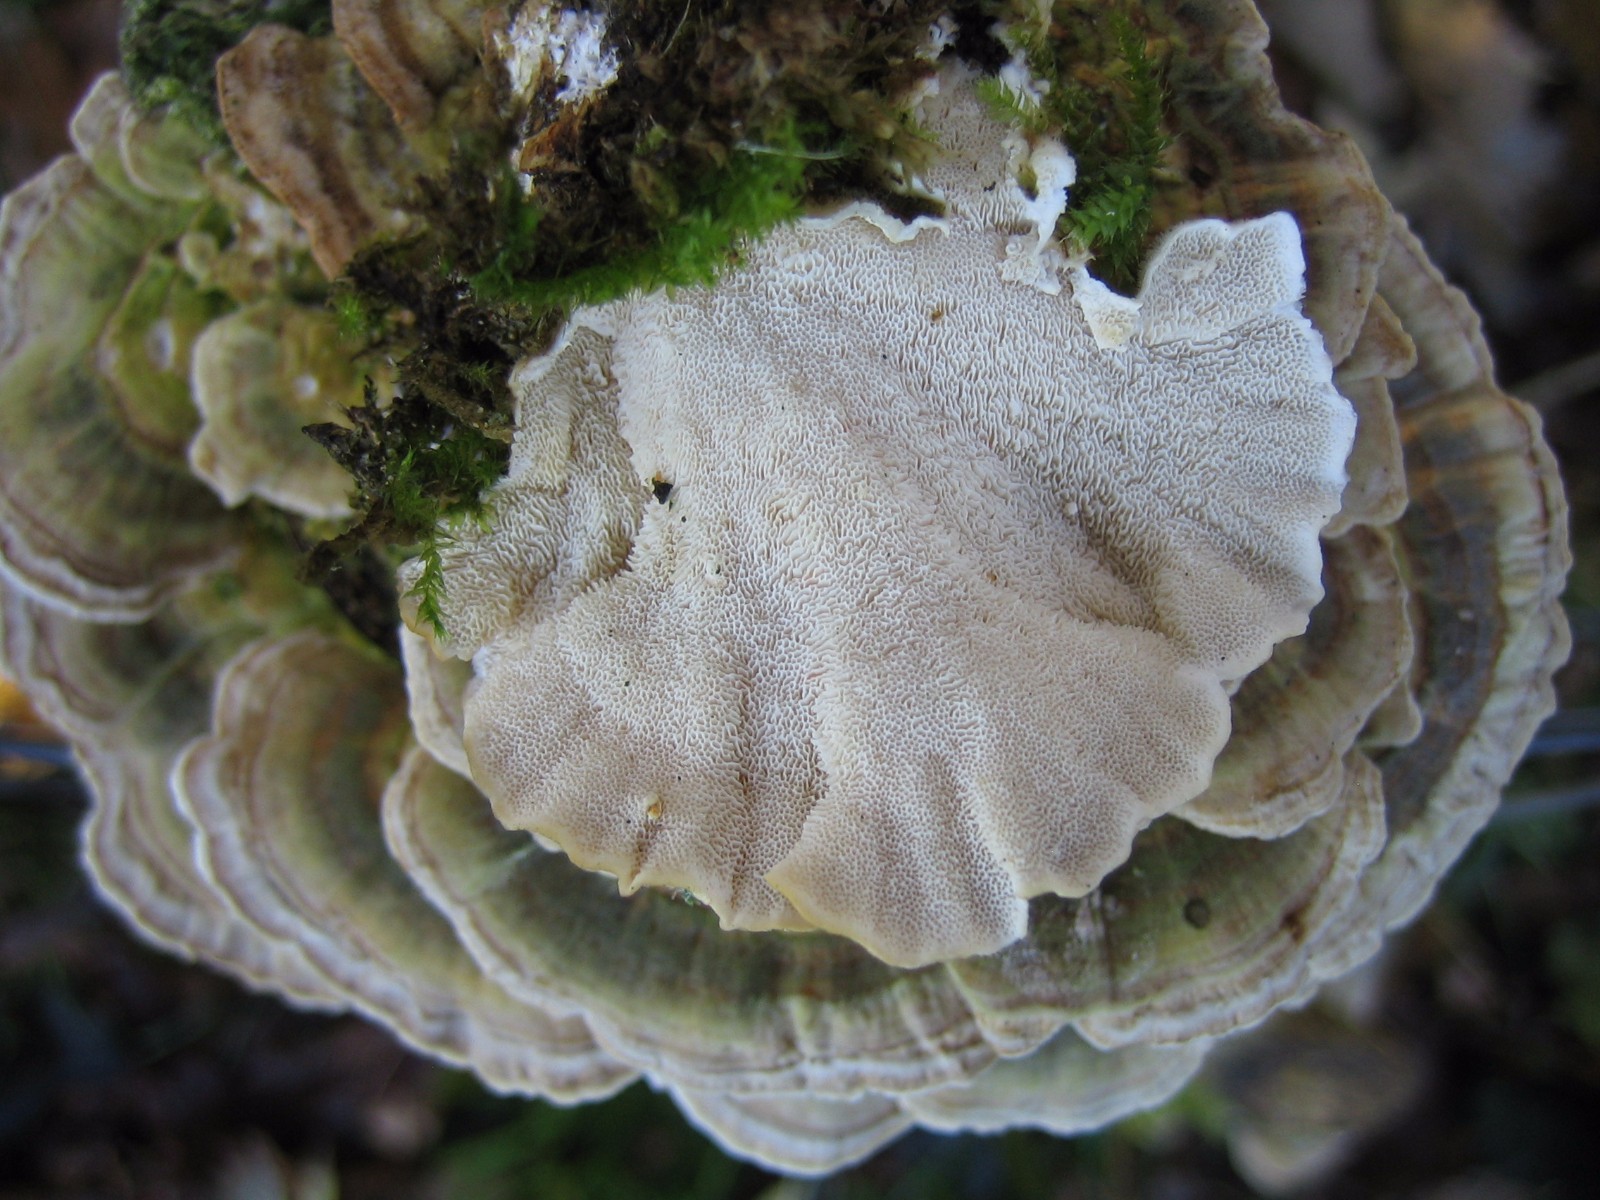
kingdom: Fungi
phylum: Basidiomycota
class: Agaricomycetes
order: Polyporales
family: Polyporaceae
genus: Trametes
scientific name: Trametes versicolor
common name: broget læderporesvamp
